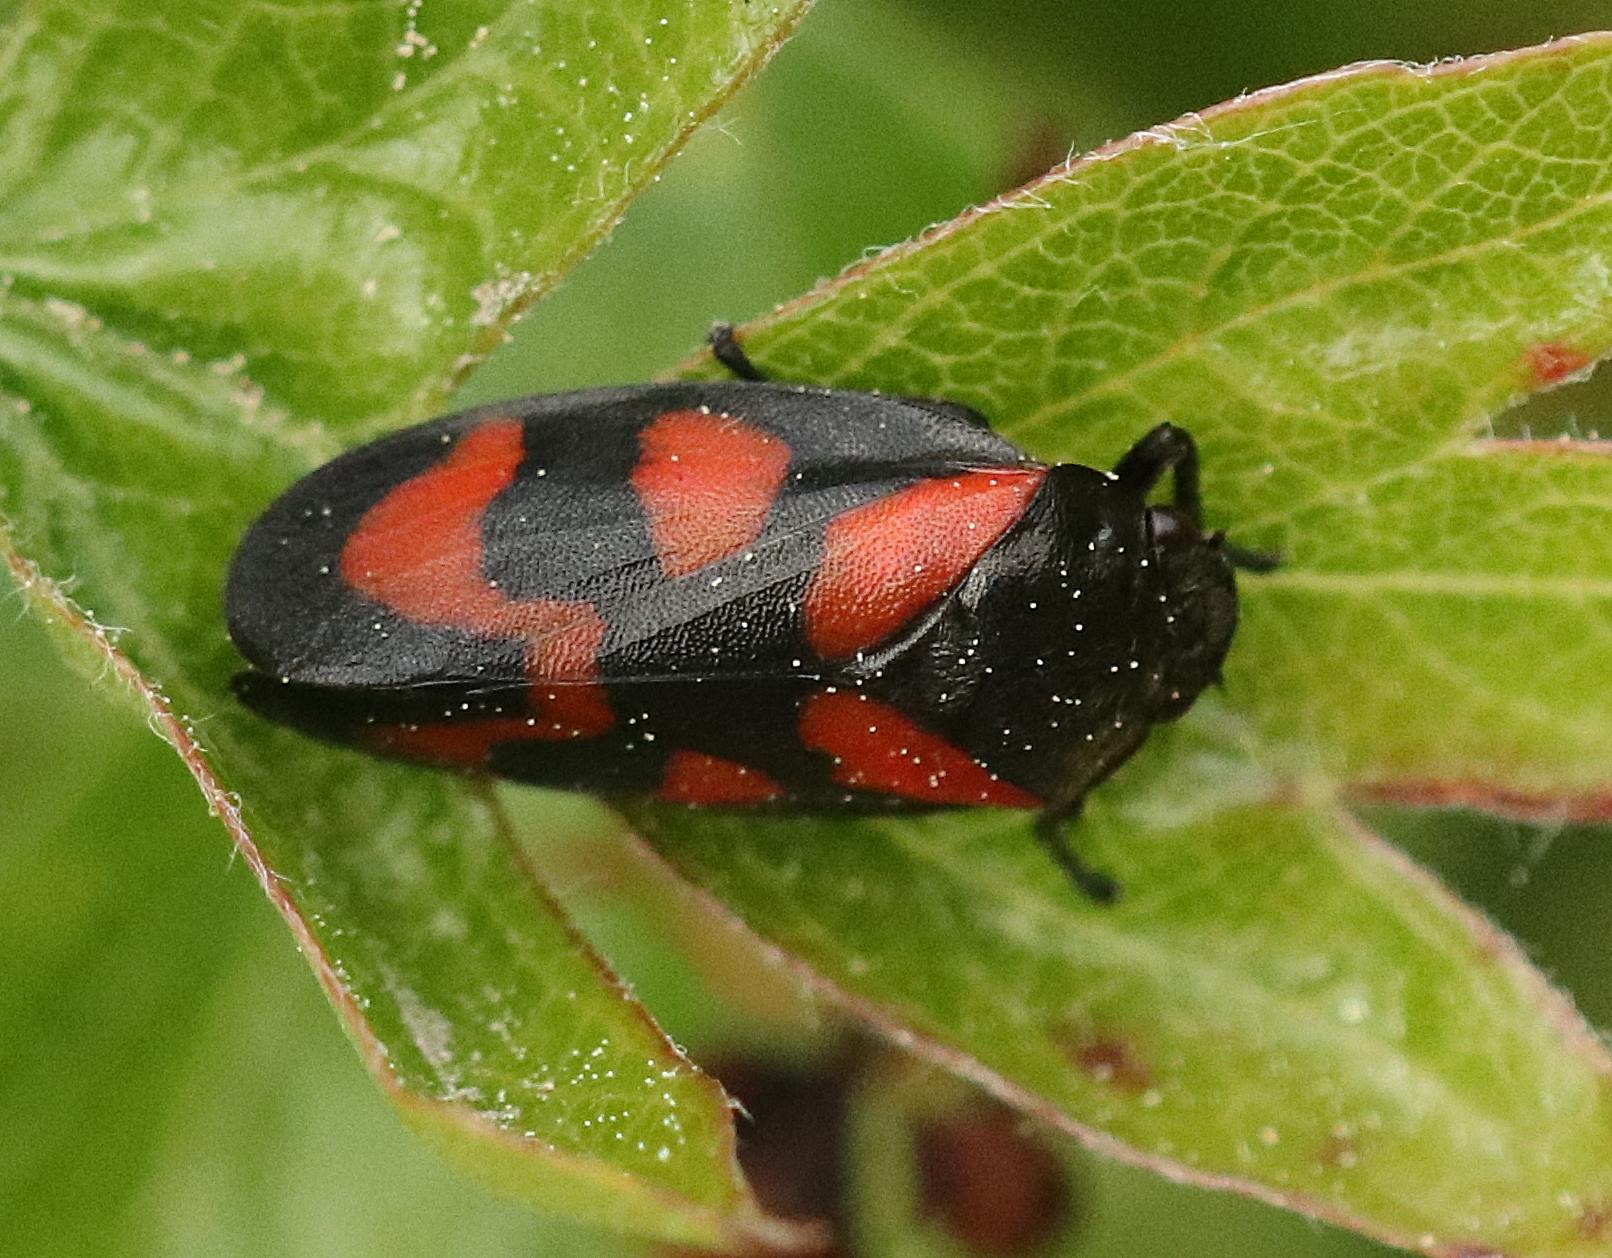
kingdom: Animalia
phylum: Arthropoda
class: Insecta
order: Hemiptera
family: Cercopidae
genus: Cercopis
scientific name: Cercopis vulnerata
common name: Blodcikade
